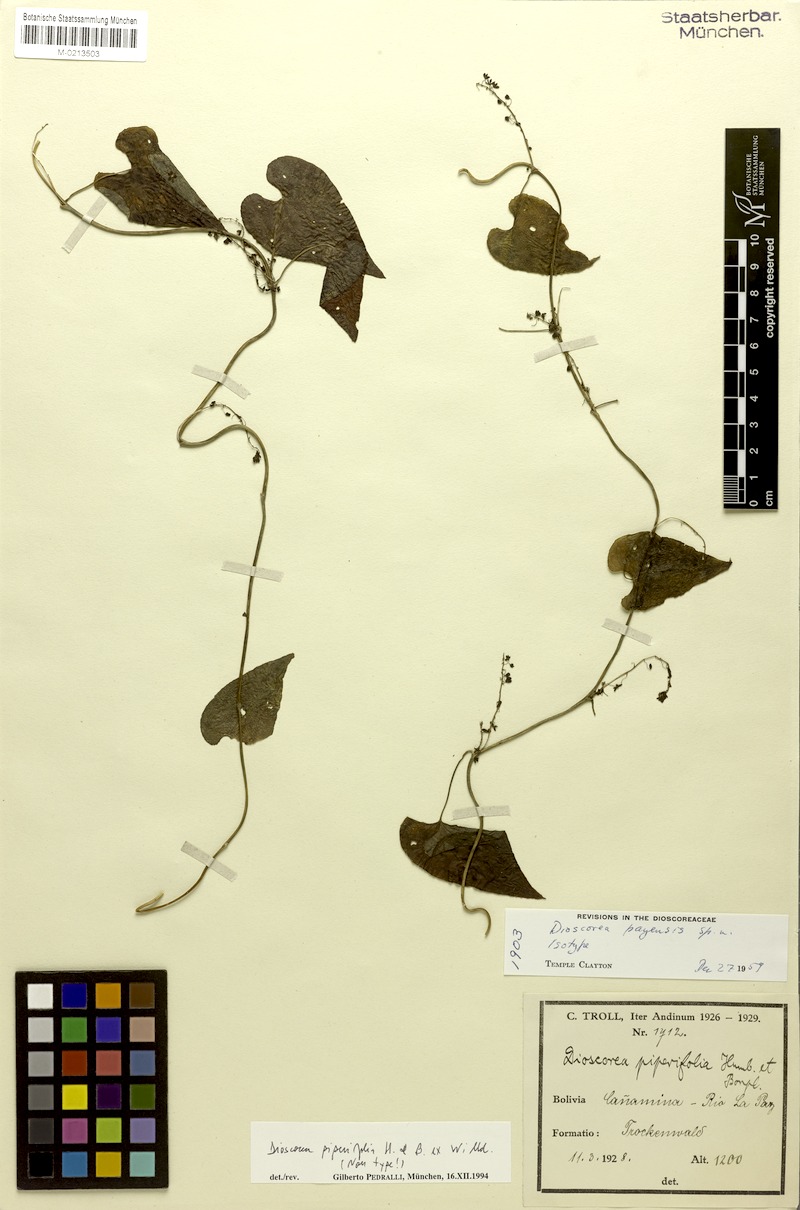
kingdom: Plantae
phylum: Tracheophyta
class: Liliopsida
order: Dioscoreales
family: Dioscoreaceae
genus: Dioscorea
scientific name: Dioscorea piperifolia
